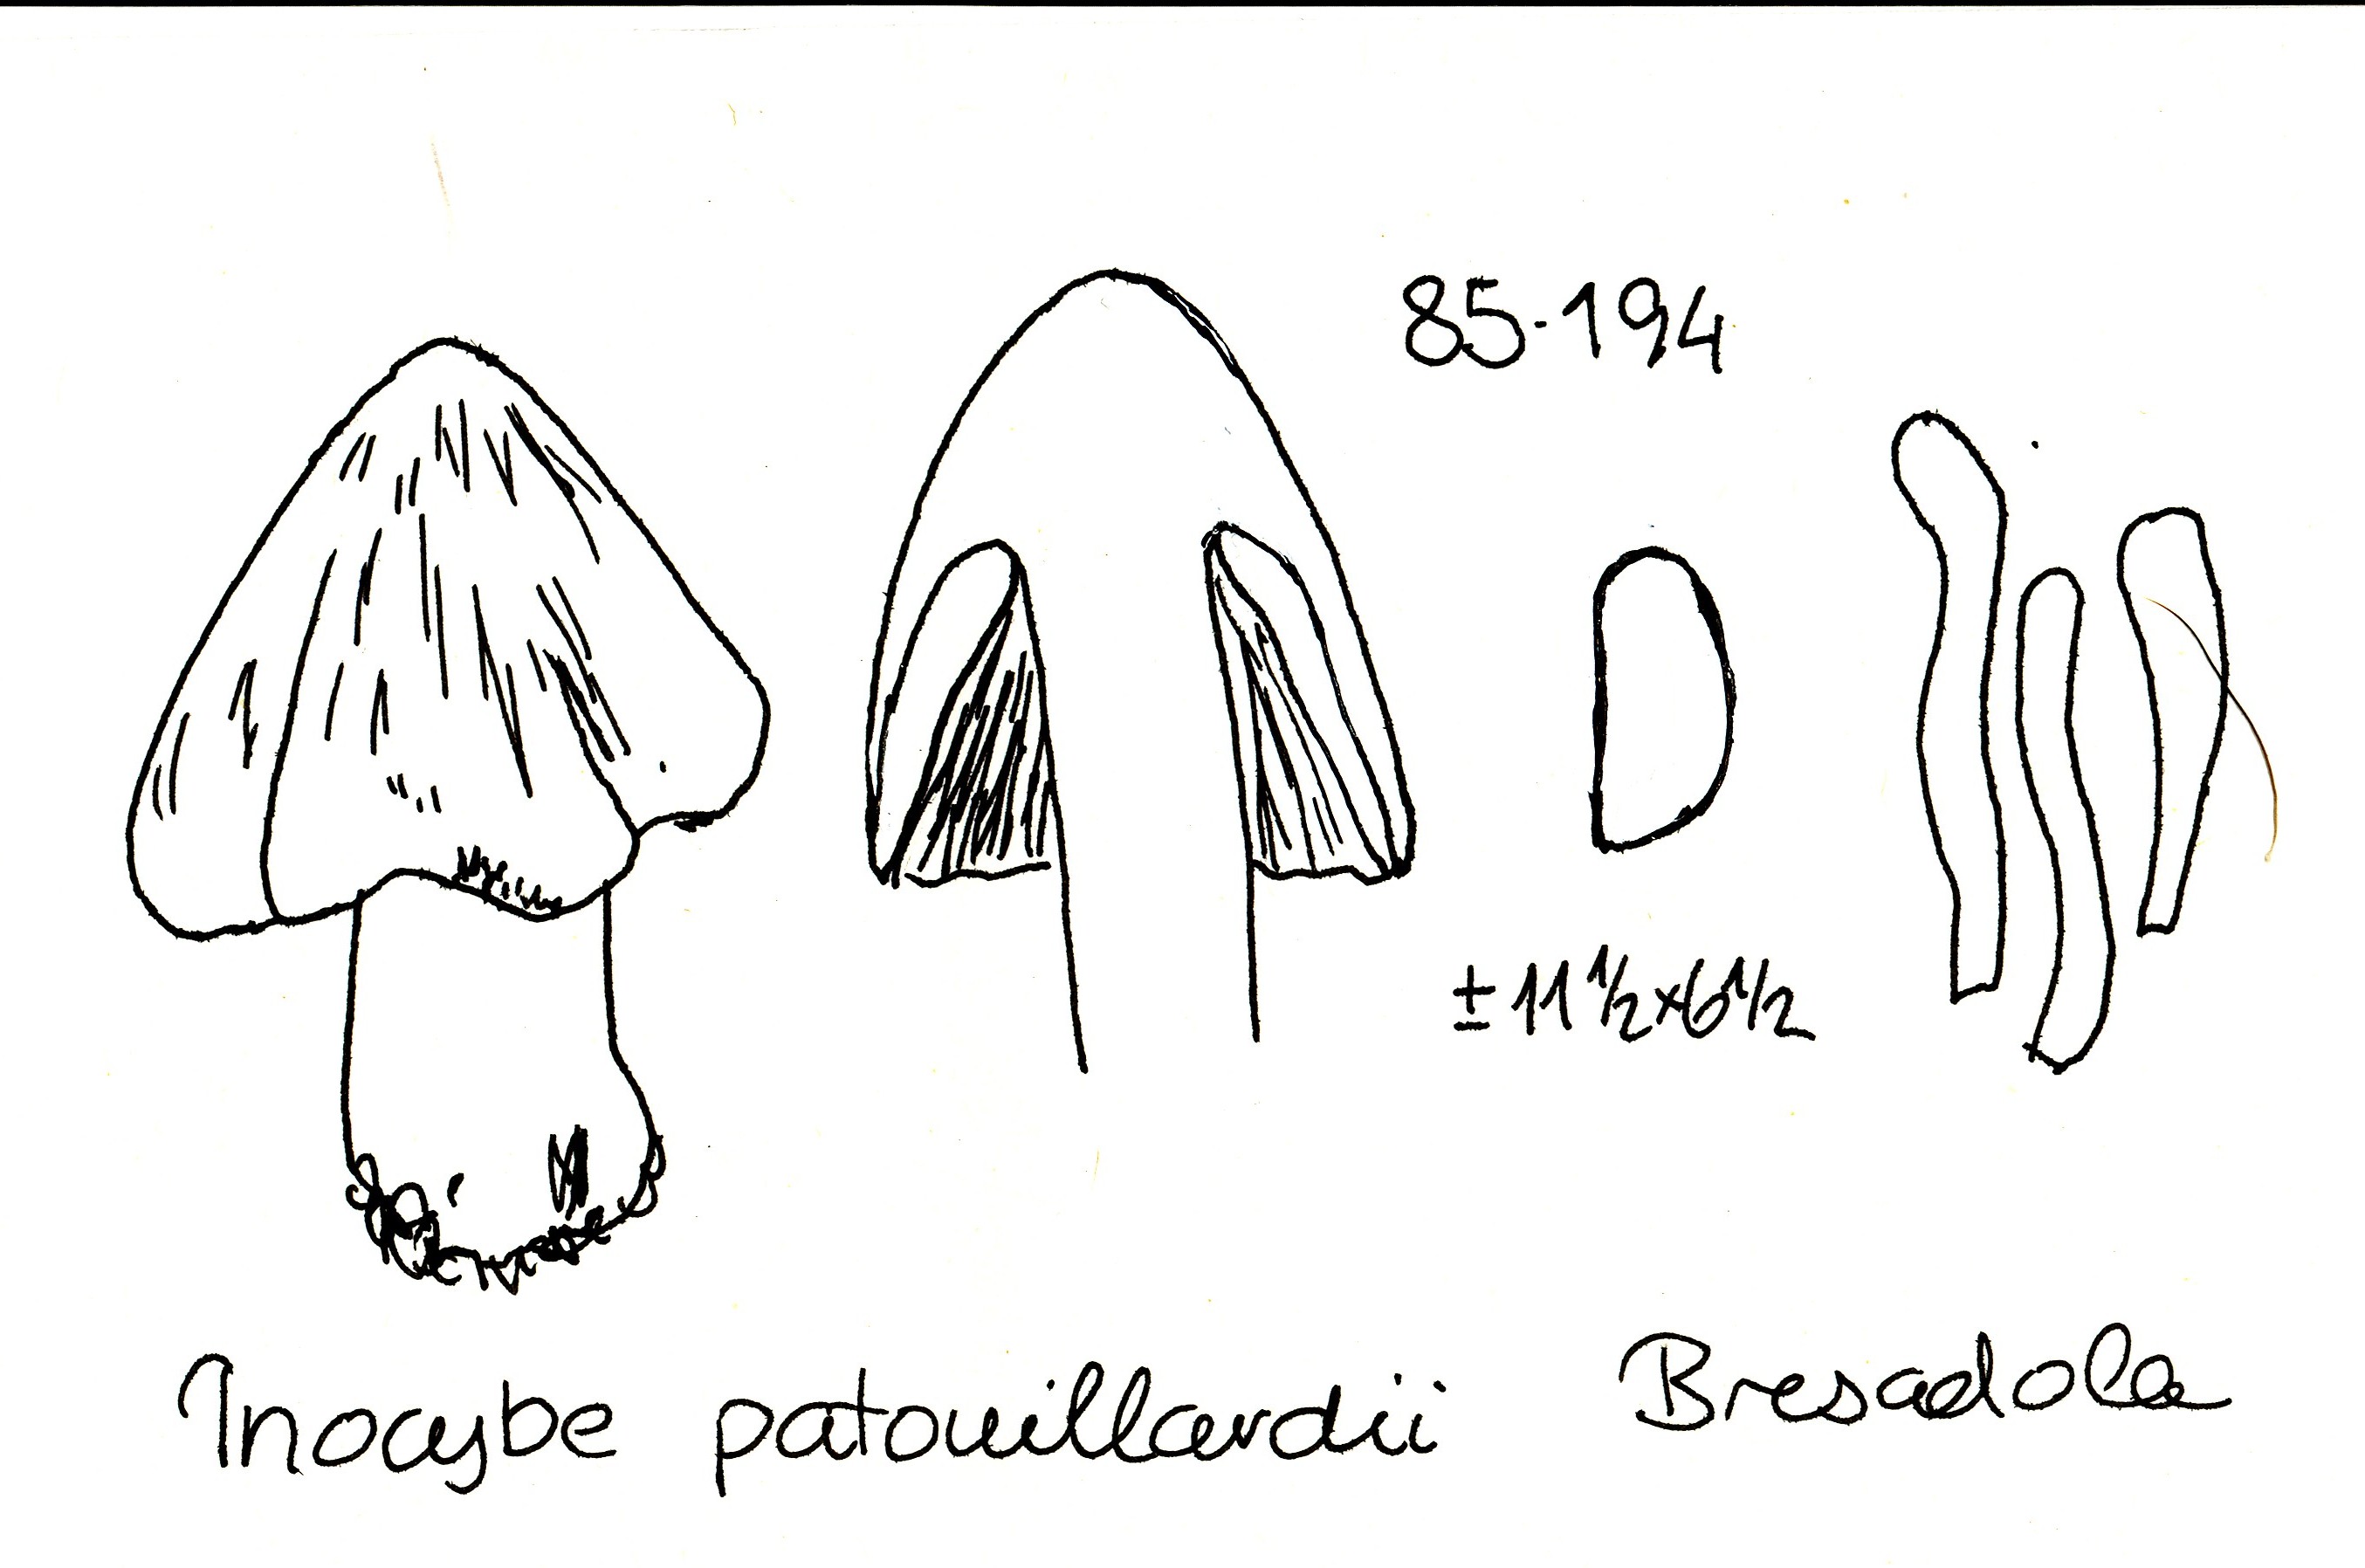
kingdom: Fungi
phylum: Basidiomycota
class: Agaricomycetes
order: Agaricales
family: Inocybaceae
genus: Inosperma
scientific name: Inosperma erubescens
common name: giftig trævlhat
